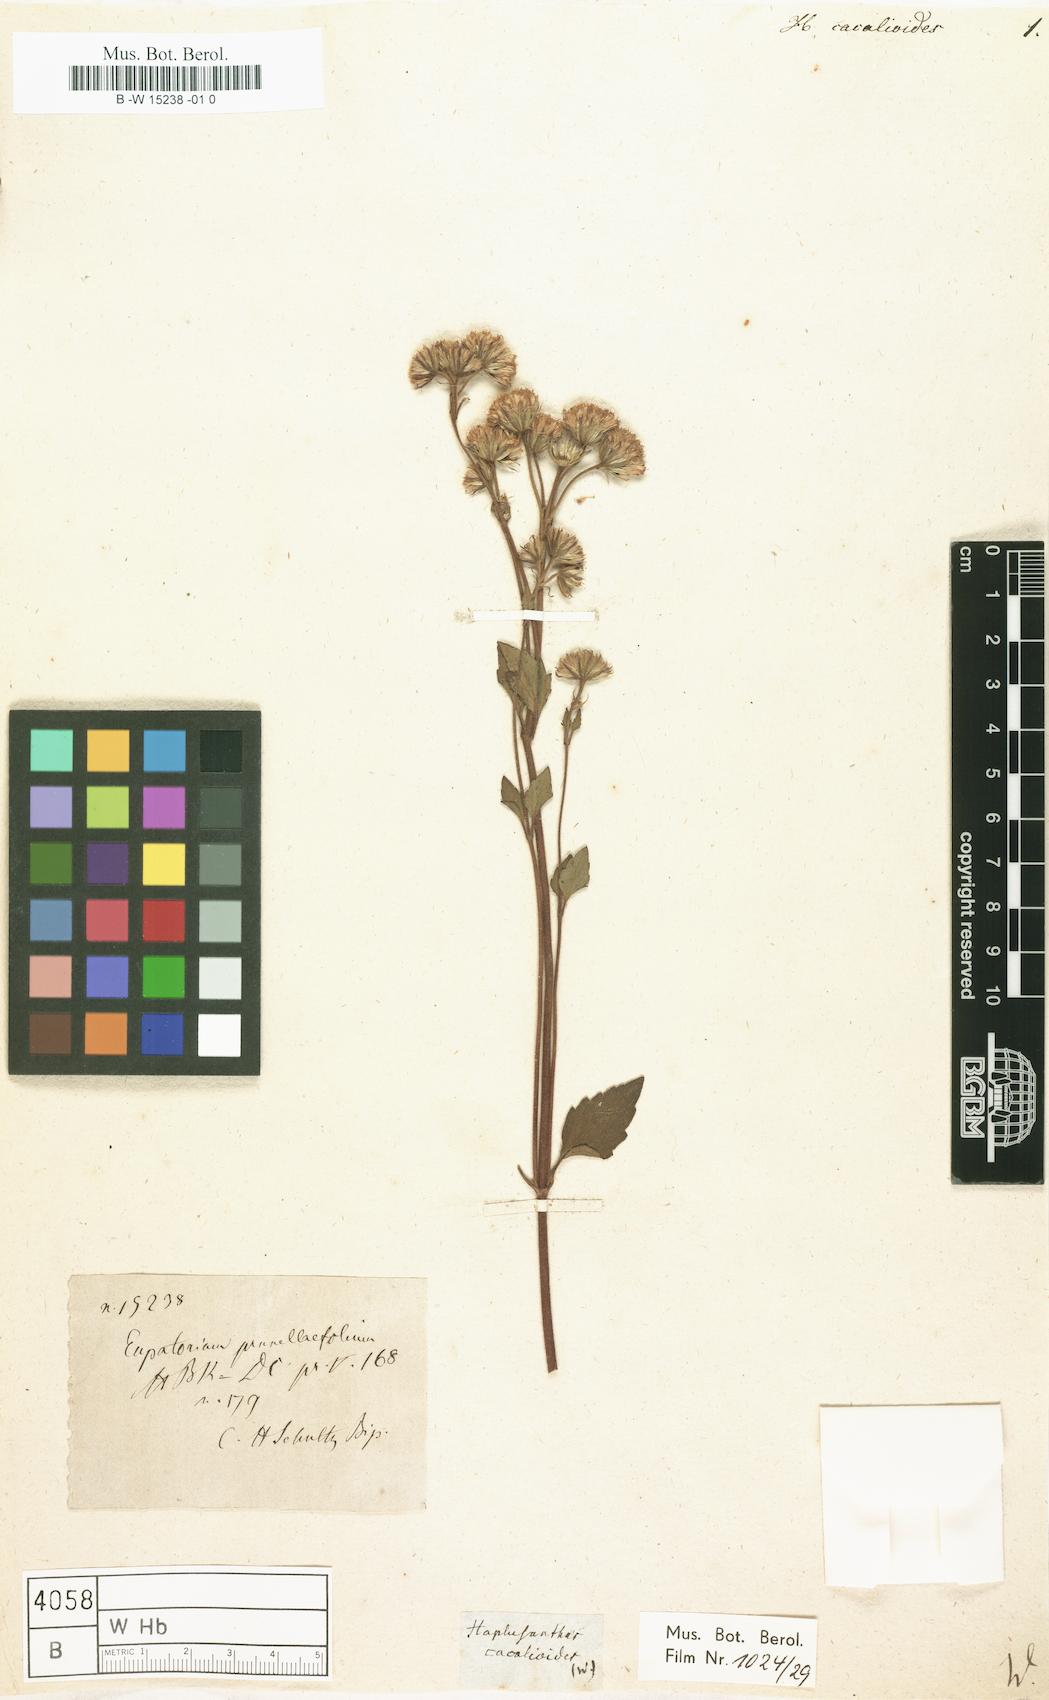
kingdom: Plantae
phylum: Tracheophyta
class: Magnoliopsida
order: Asterales
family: Asteraceae
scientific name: Asteraceae
